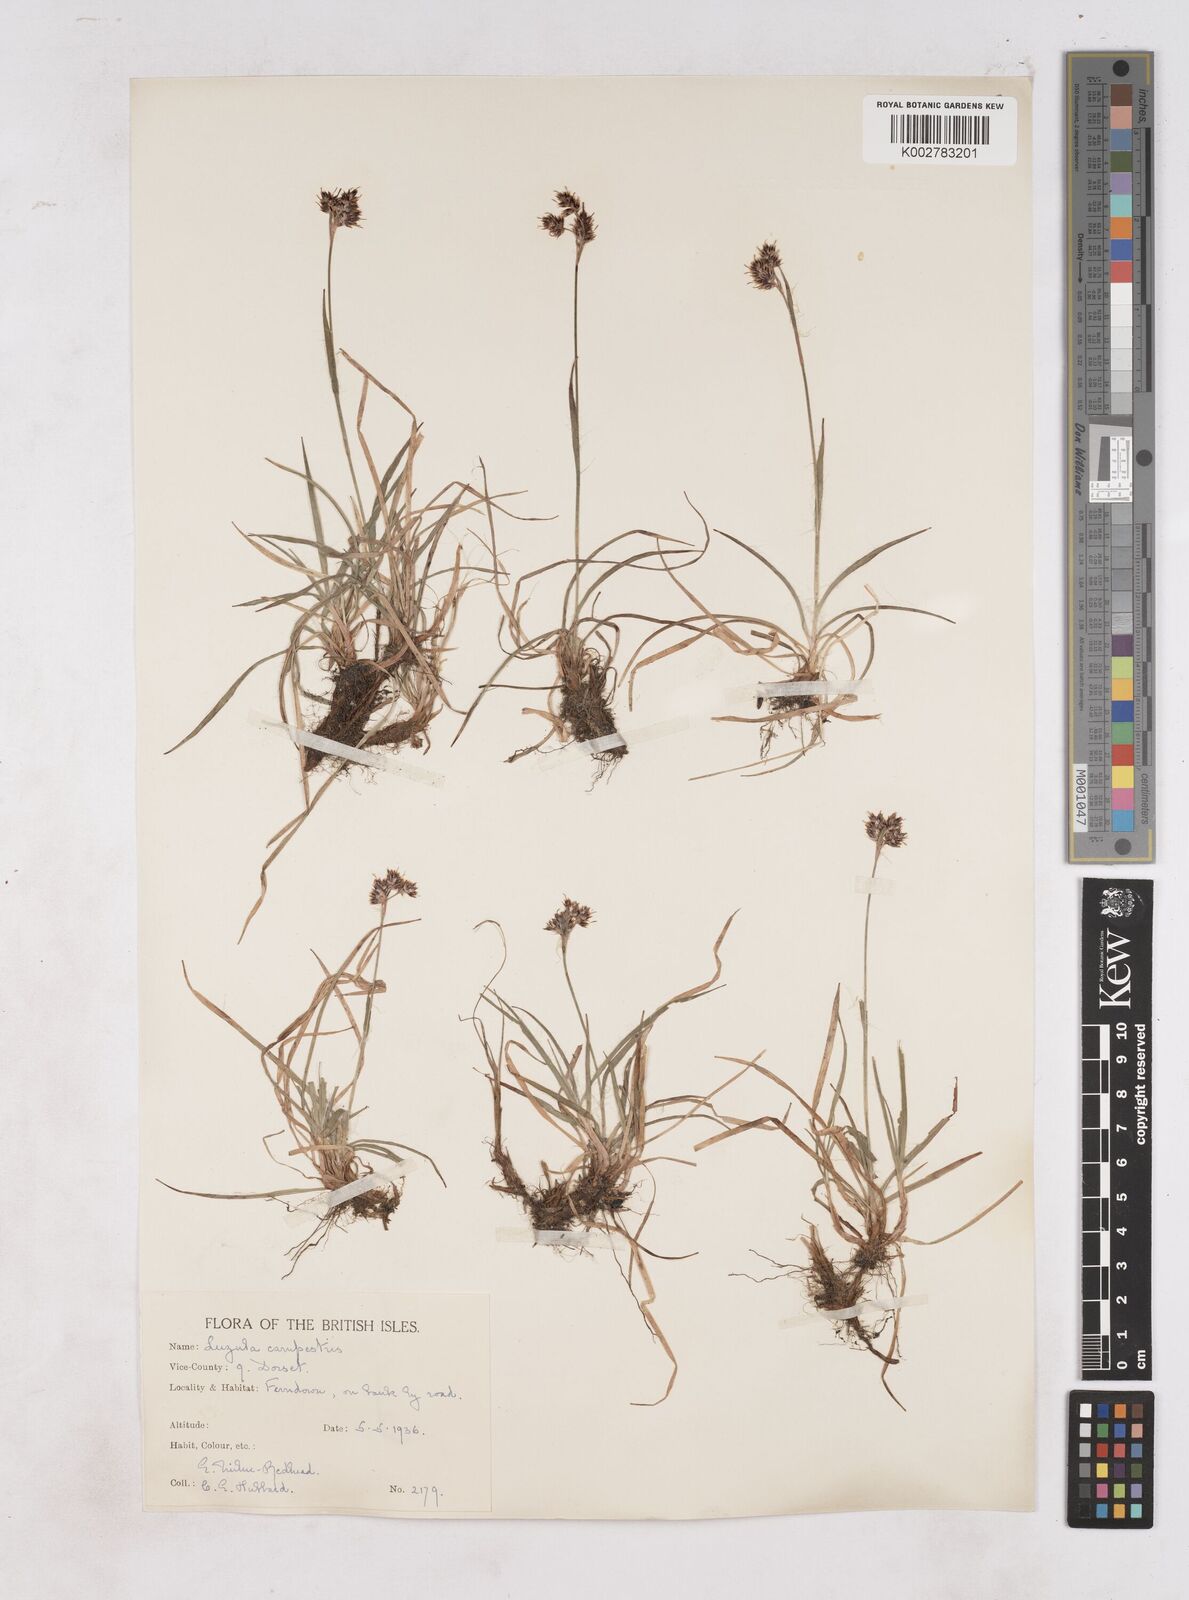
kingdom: Plantae
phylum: Tracheophyta
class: Liliopsida
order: Poales
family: Juncaceae
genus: Luzula
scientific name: Luzula multiflora
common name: Heath wood-rush
